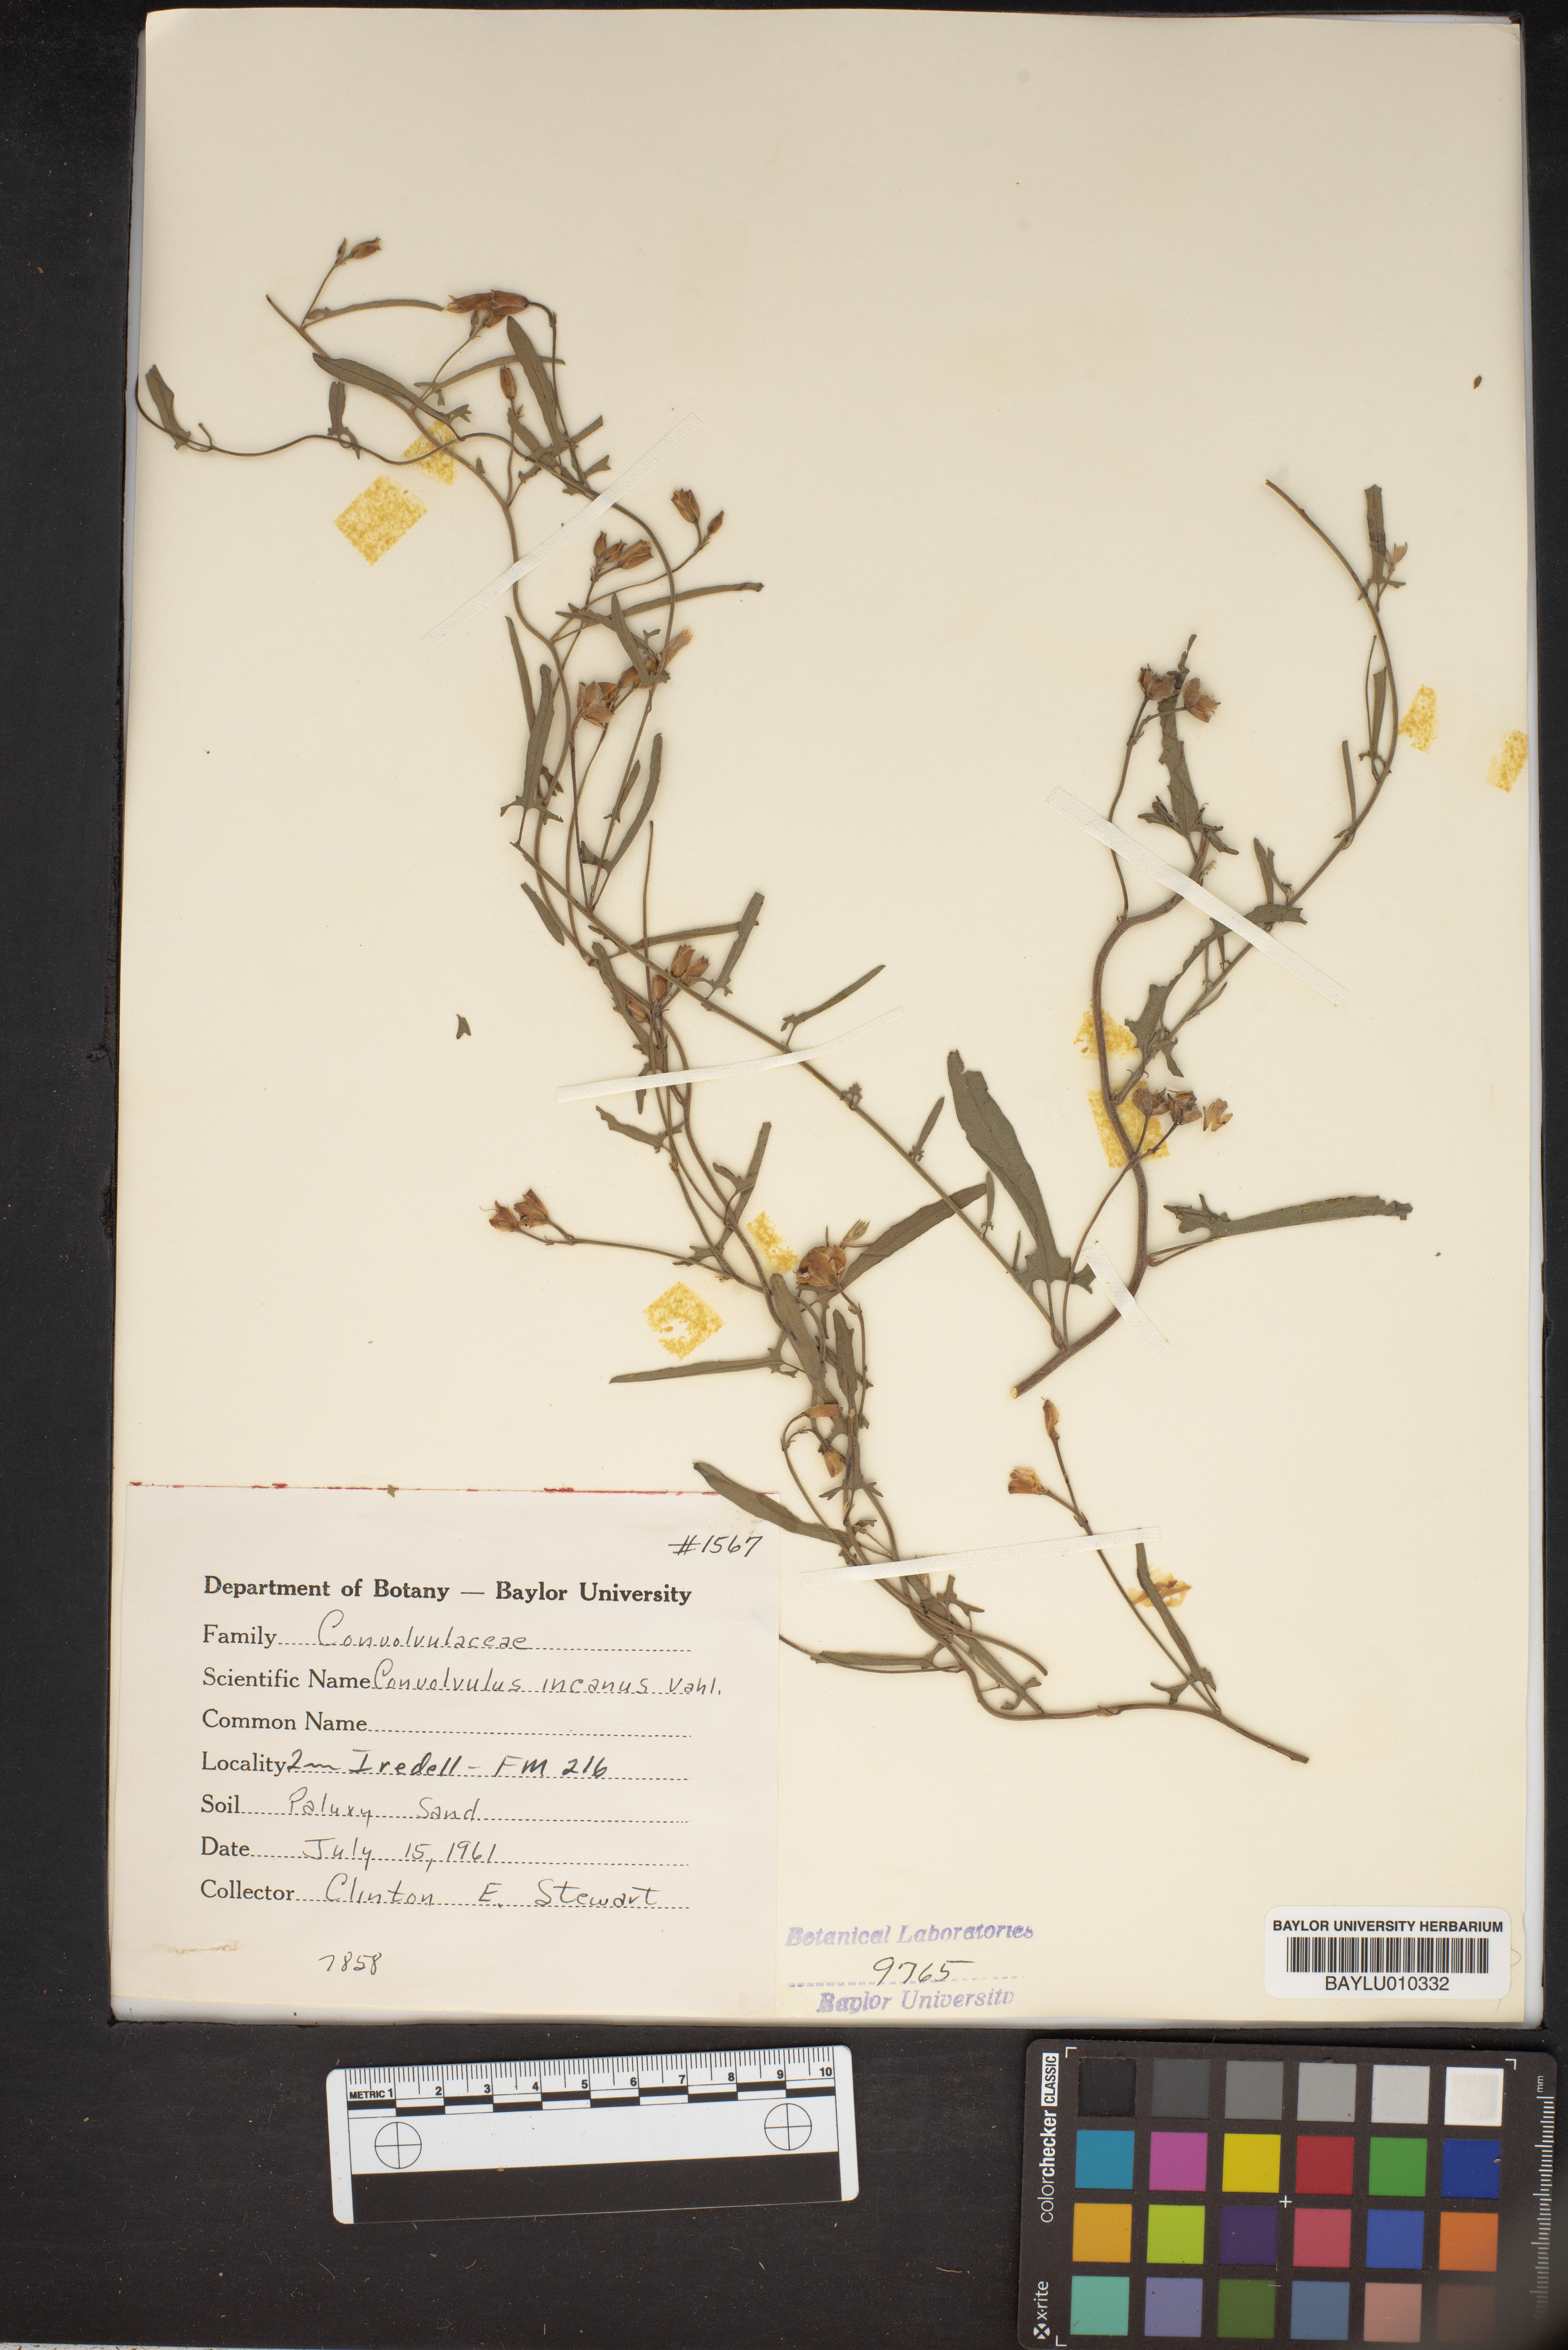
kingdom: Plantae
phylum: Tracheophyta
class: Magnoliopsida
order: Solanales
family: Convolvulaceae
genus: Convolvulus
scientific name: Convolvulus hermanniae
